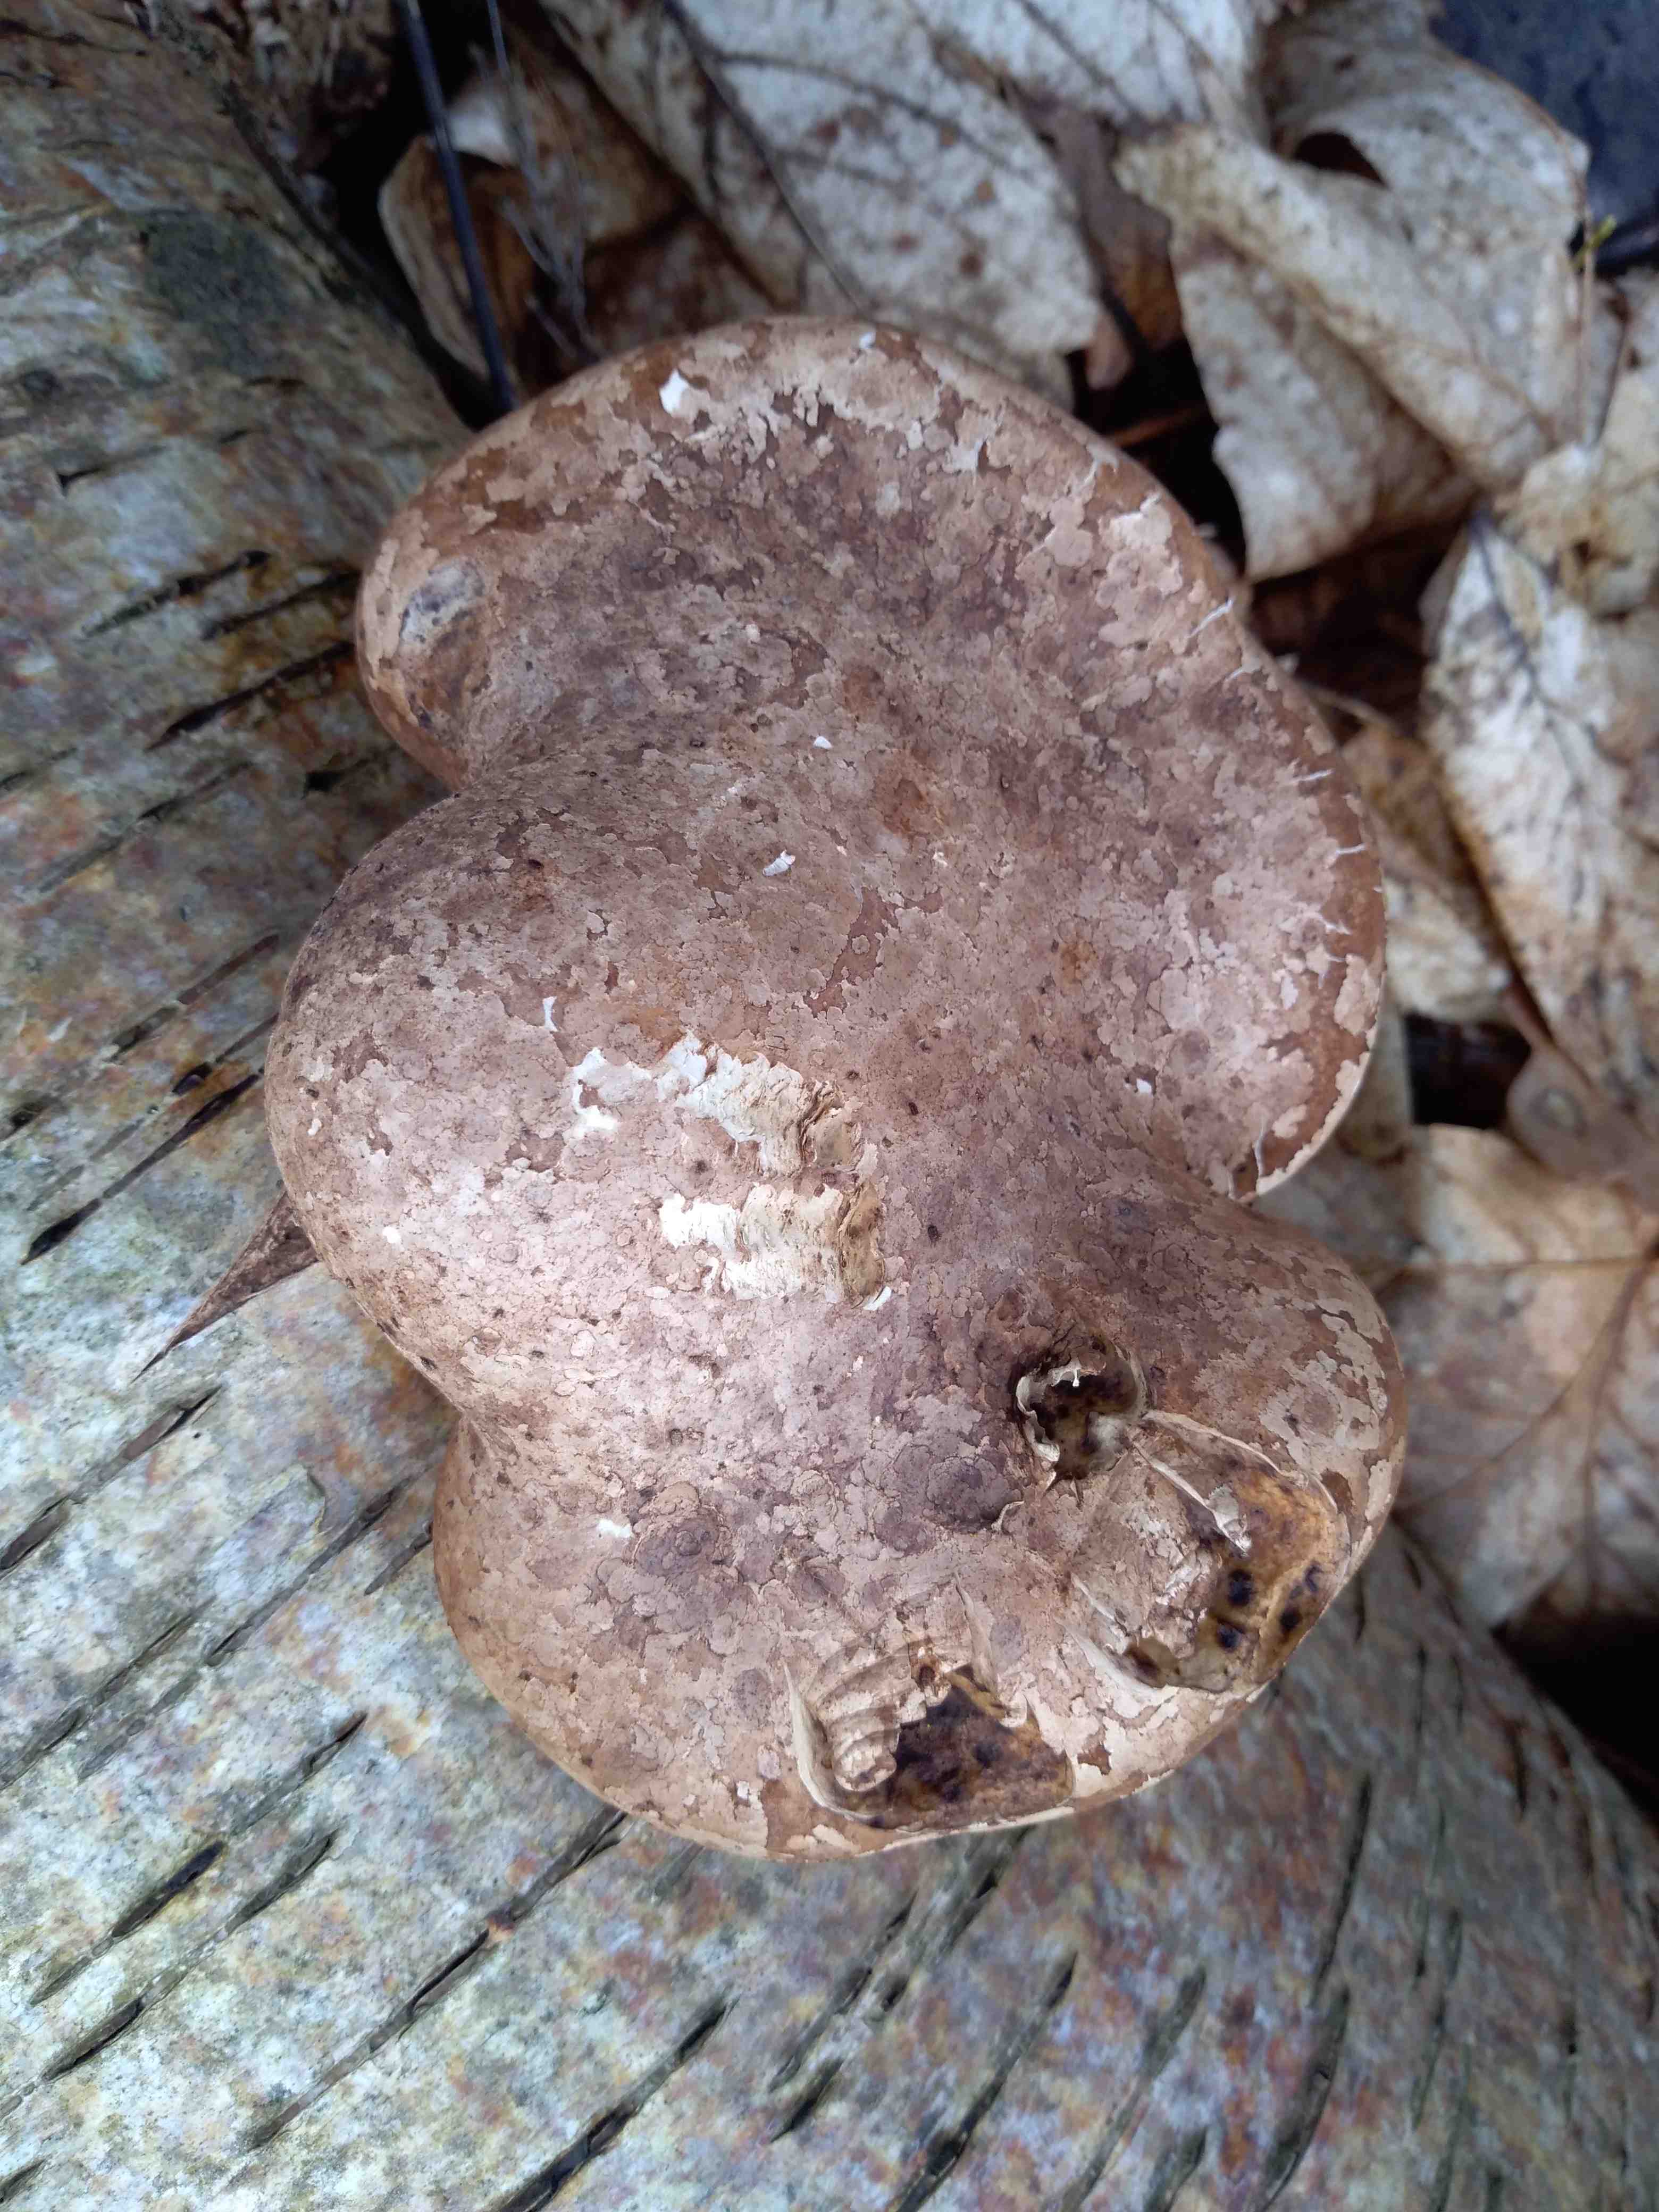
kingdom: Fungi
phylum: Basidiomycota
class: Agaricomycetes
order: Polyporales
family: Fomitopsidaceae
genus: Fomitopsis
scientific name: Fomitopsis betulina
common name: birkeporesvamp
